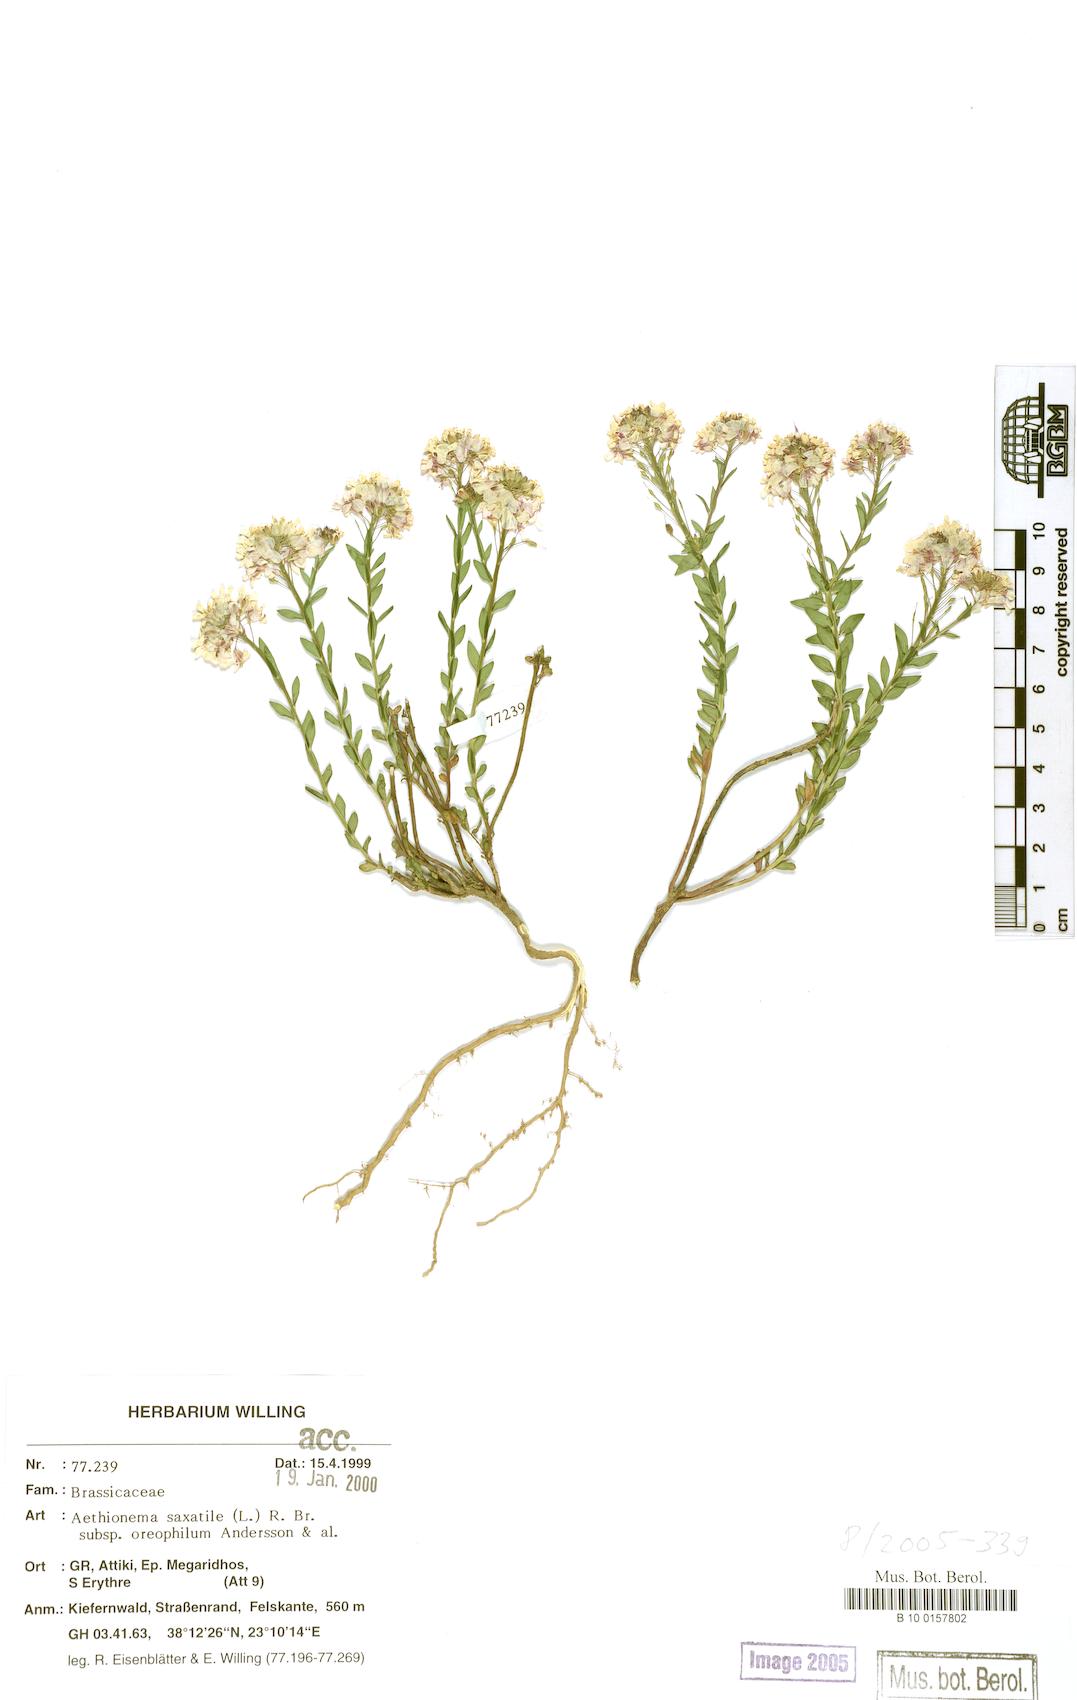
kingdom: Plantae
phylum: Tracheophyta
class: Magnoliopsida
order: Brassicales
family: Brassicaceae
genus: Aethionema
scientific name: Aethionema saxatile
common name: Burnt candytuft
